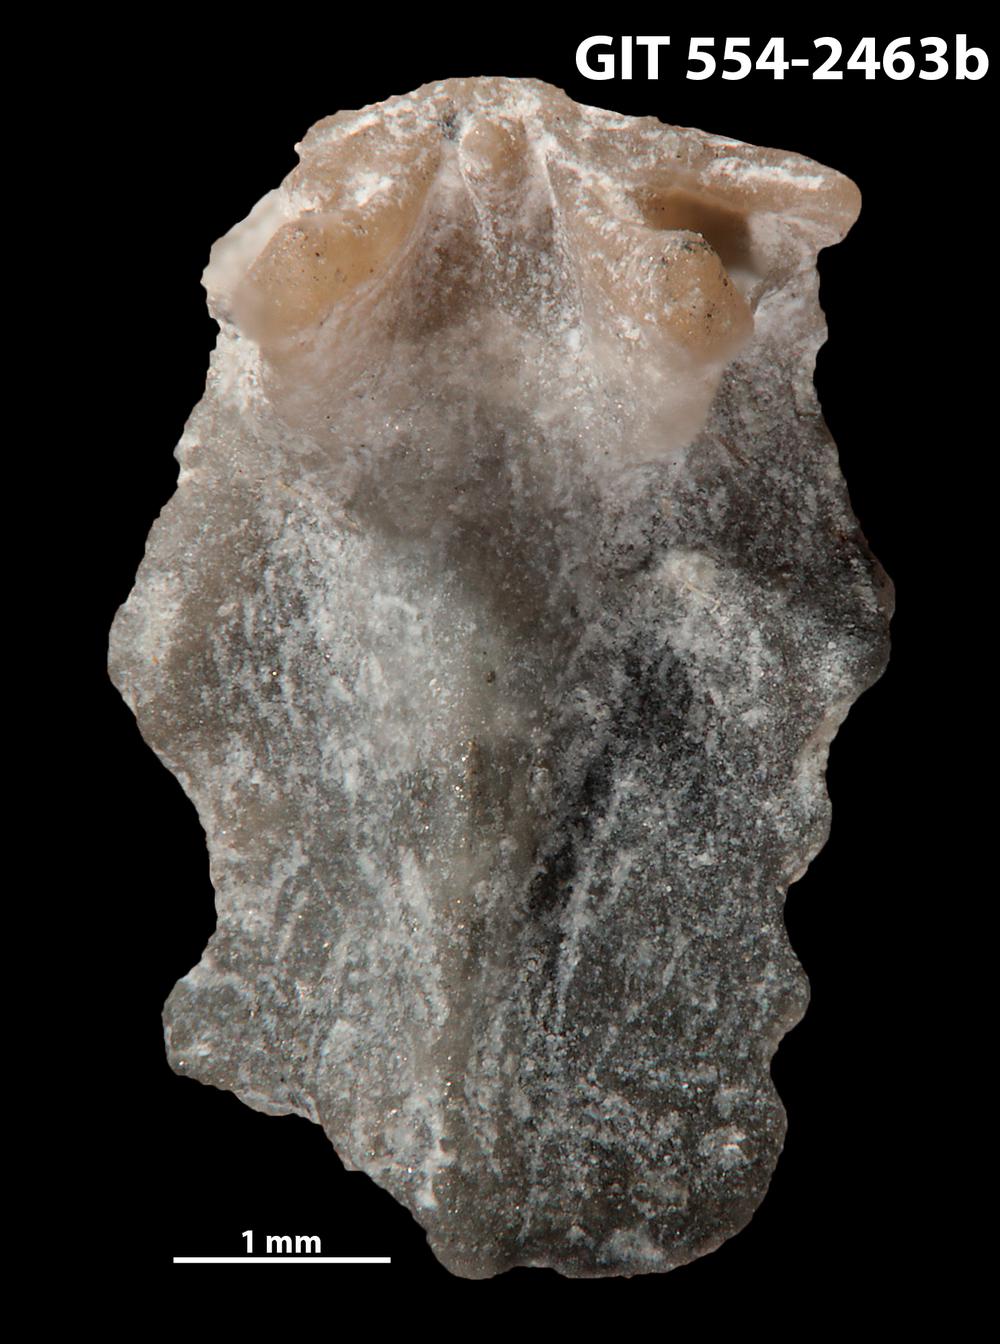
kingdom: Animalia
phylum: Brachiopoda
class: Rhynchonellata
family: Dalmanellidae
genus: Dalmanella
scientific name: Dalmanella rosensteinae
